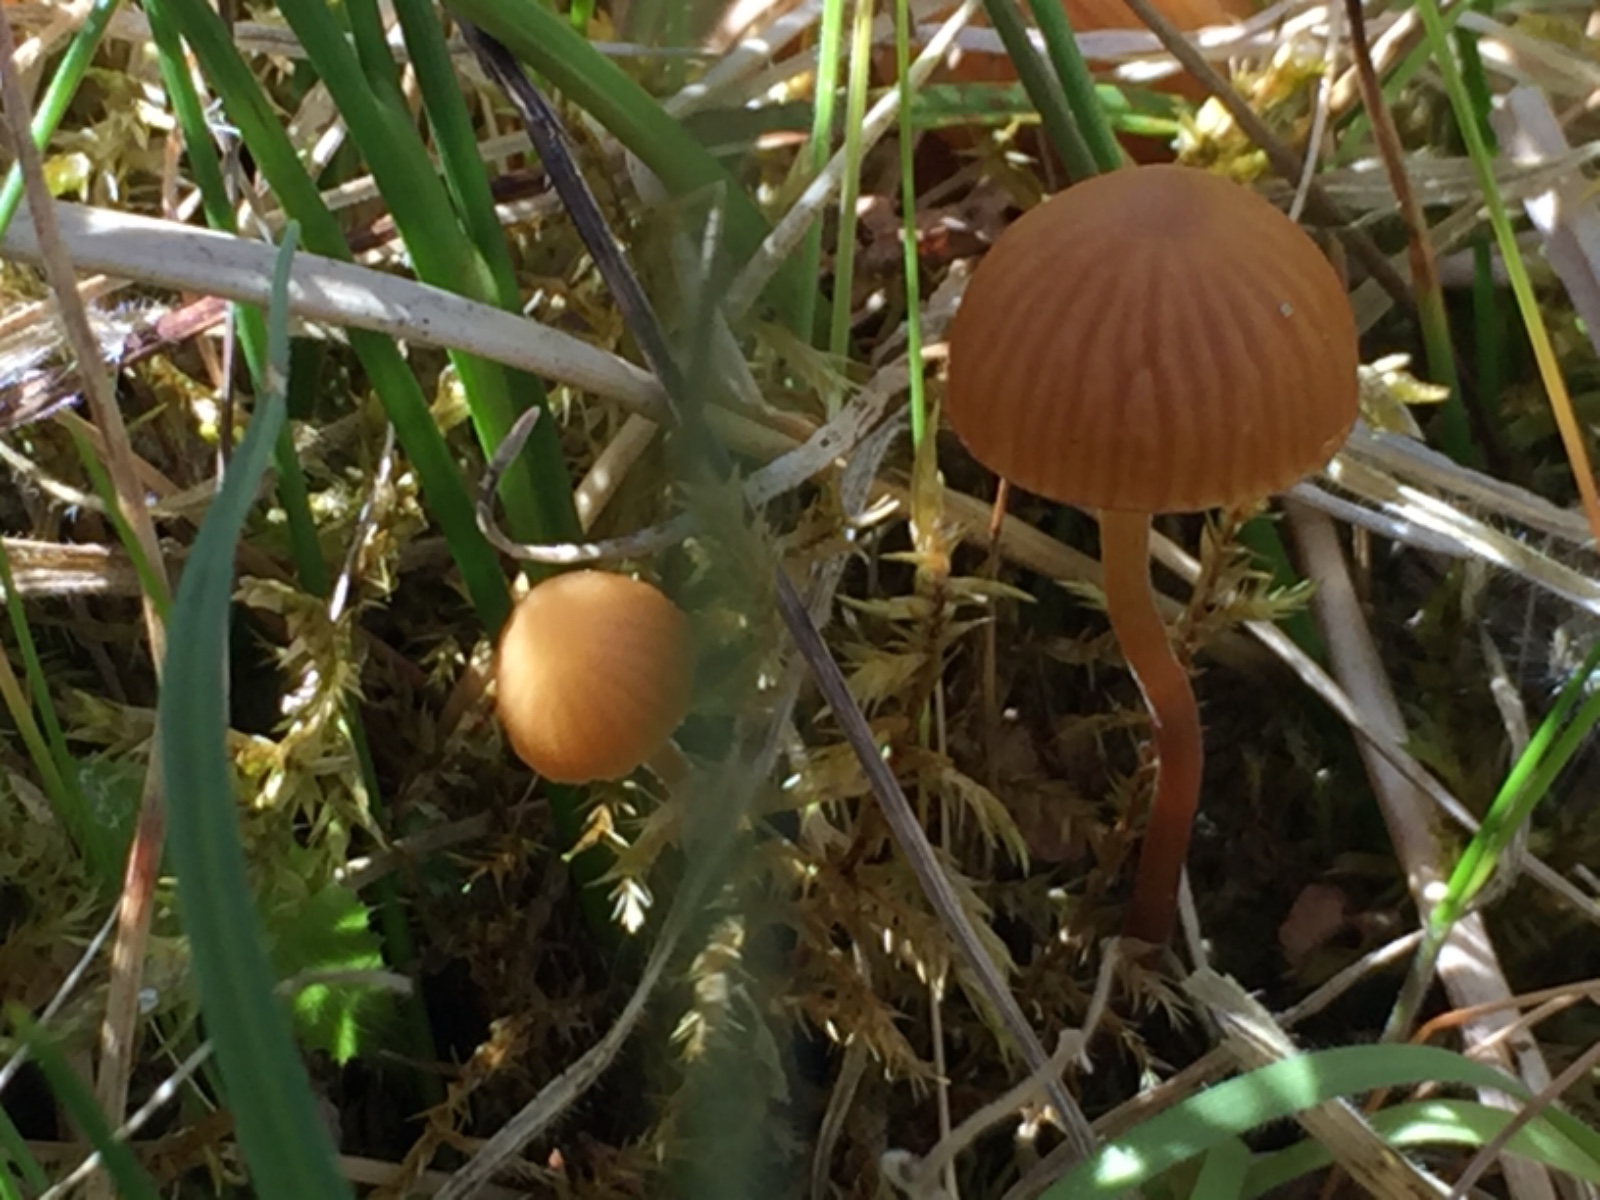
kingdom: Fungi
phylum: Basidiomycota
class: Agaricomycetes
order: Agaricales
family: Hymenogastraceae
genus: Galerina
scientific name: Galerina
